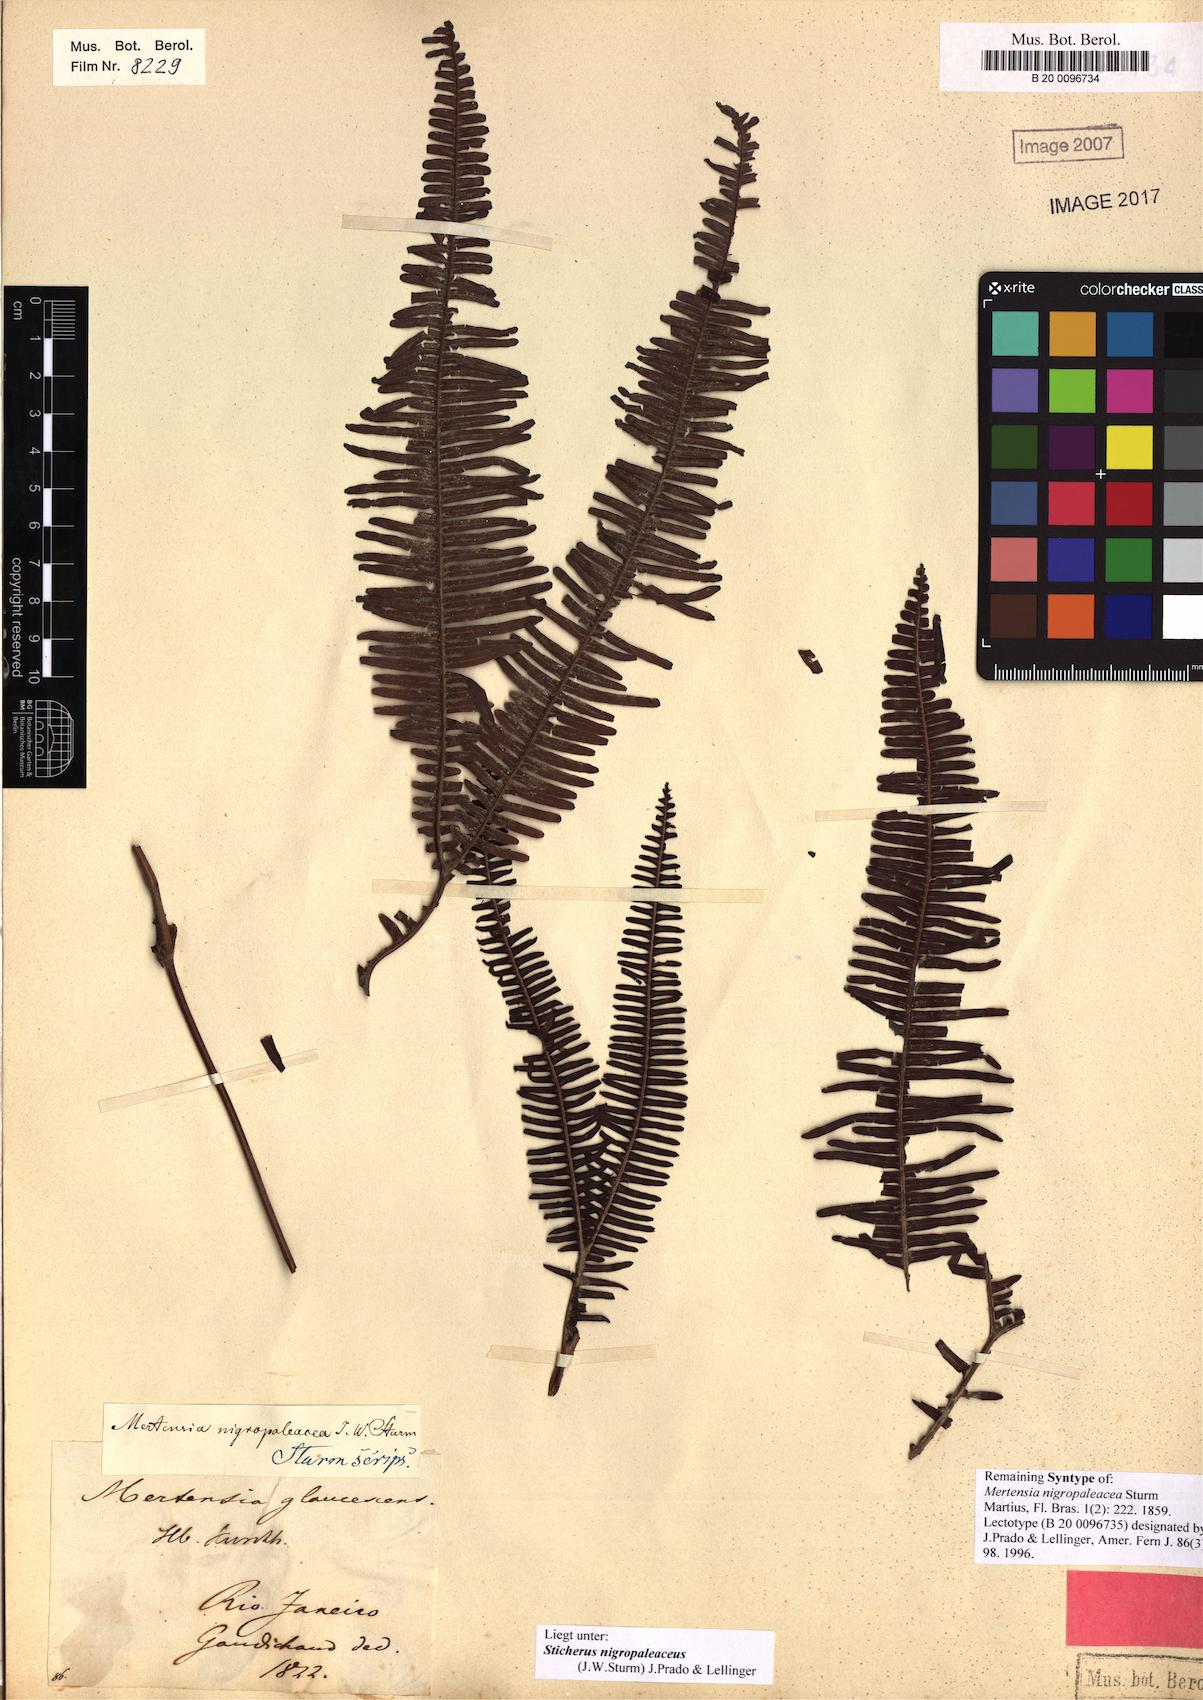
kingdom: Plantae
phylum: Tracheophyta
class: Polypodiopsida
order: Gleicheniales
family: Gleicheniaceae
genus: Sticherus
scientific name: Sticherus nigropaleaceus
